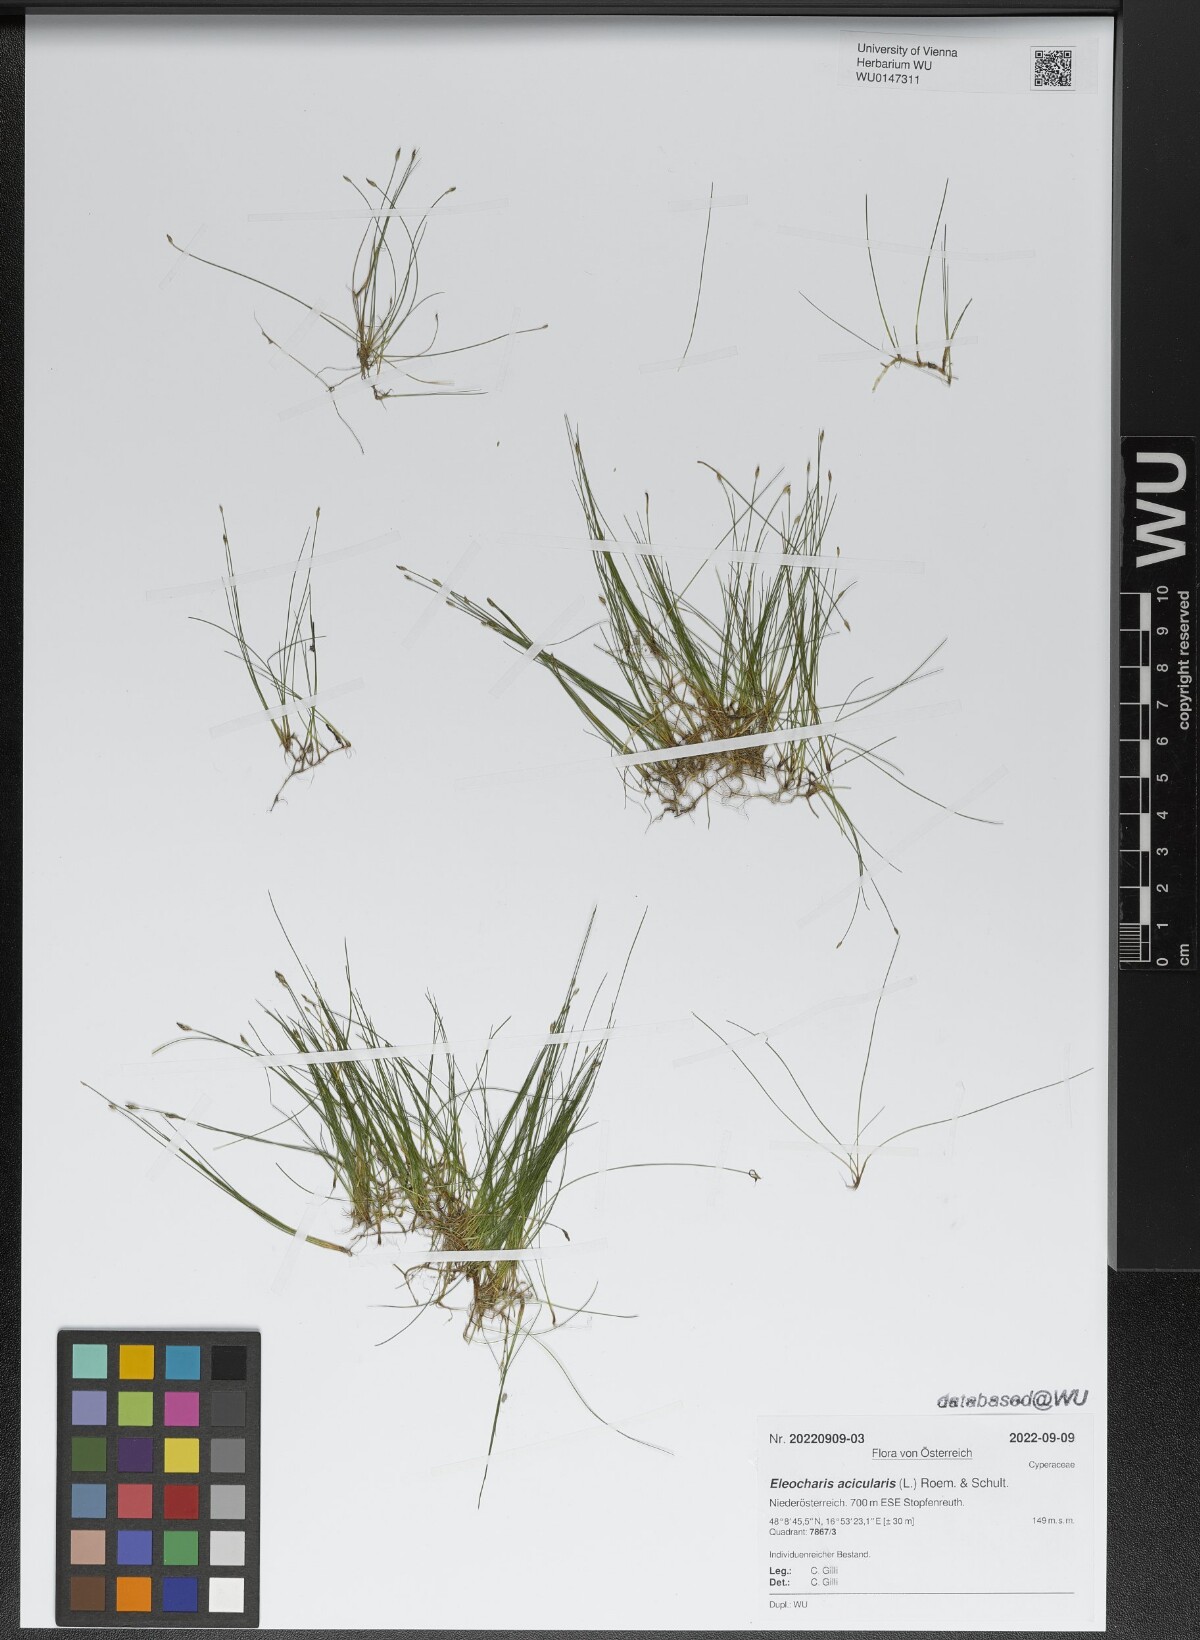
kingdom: Plantae
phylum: Tracheophyta
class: Liliopsida
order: Poales
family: Cyperaceae
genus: Eleocharis
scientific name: Eleocharis acicularis
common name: Needle spike-rush
